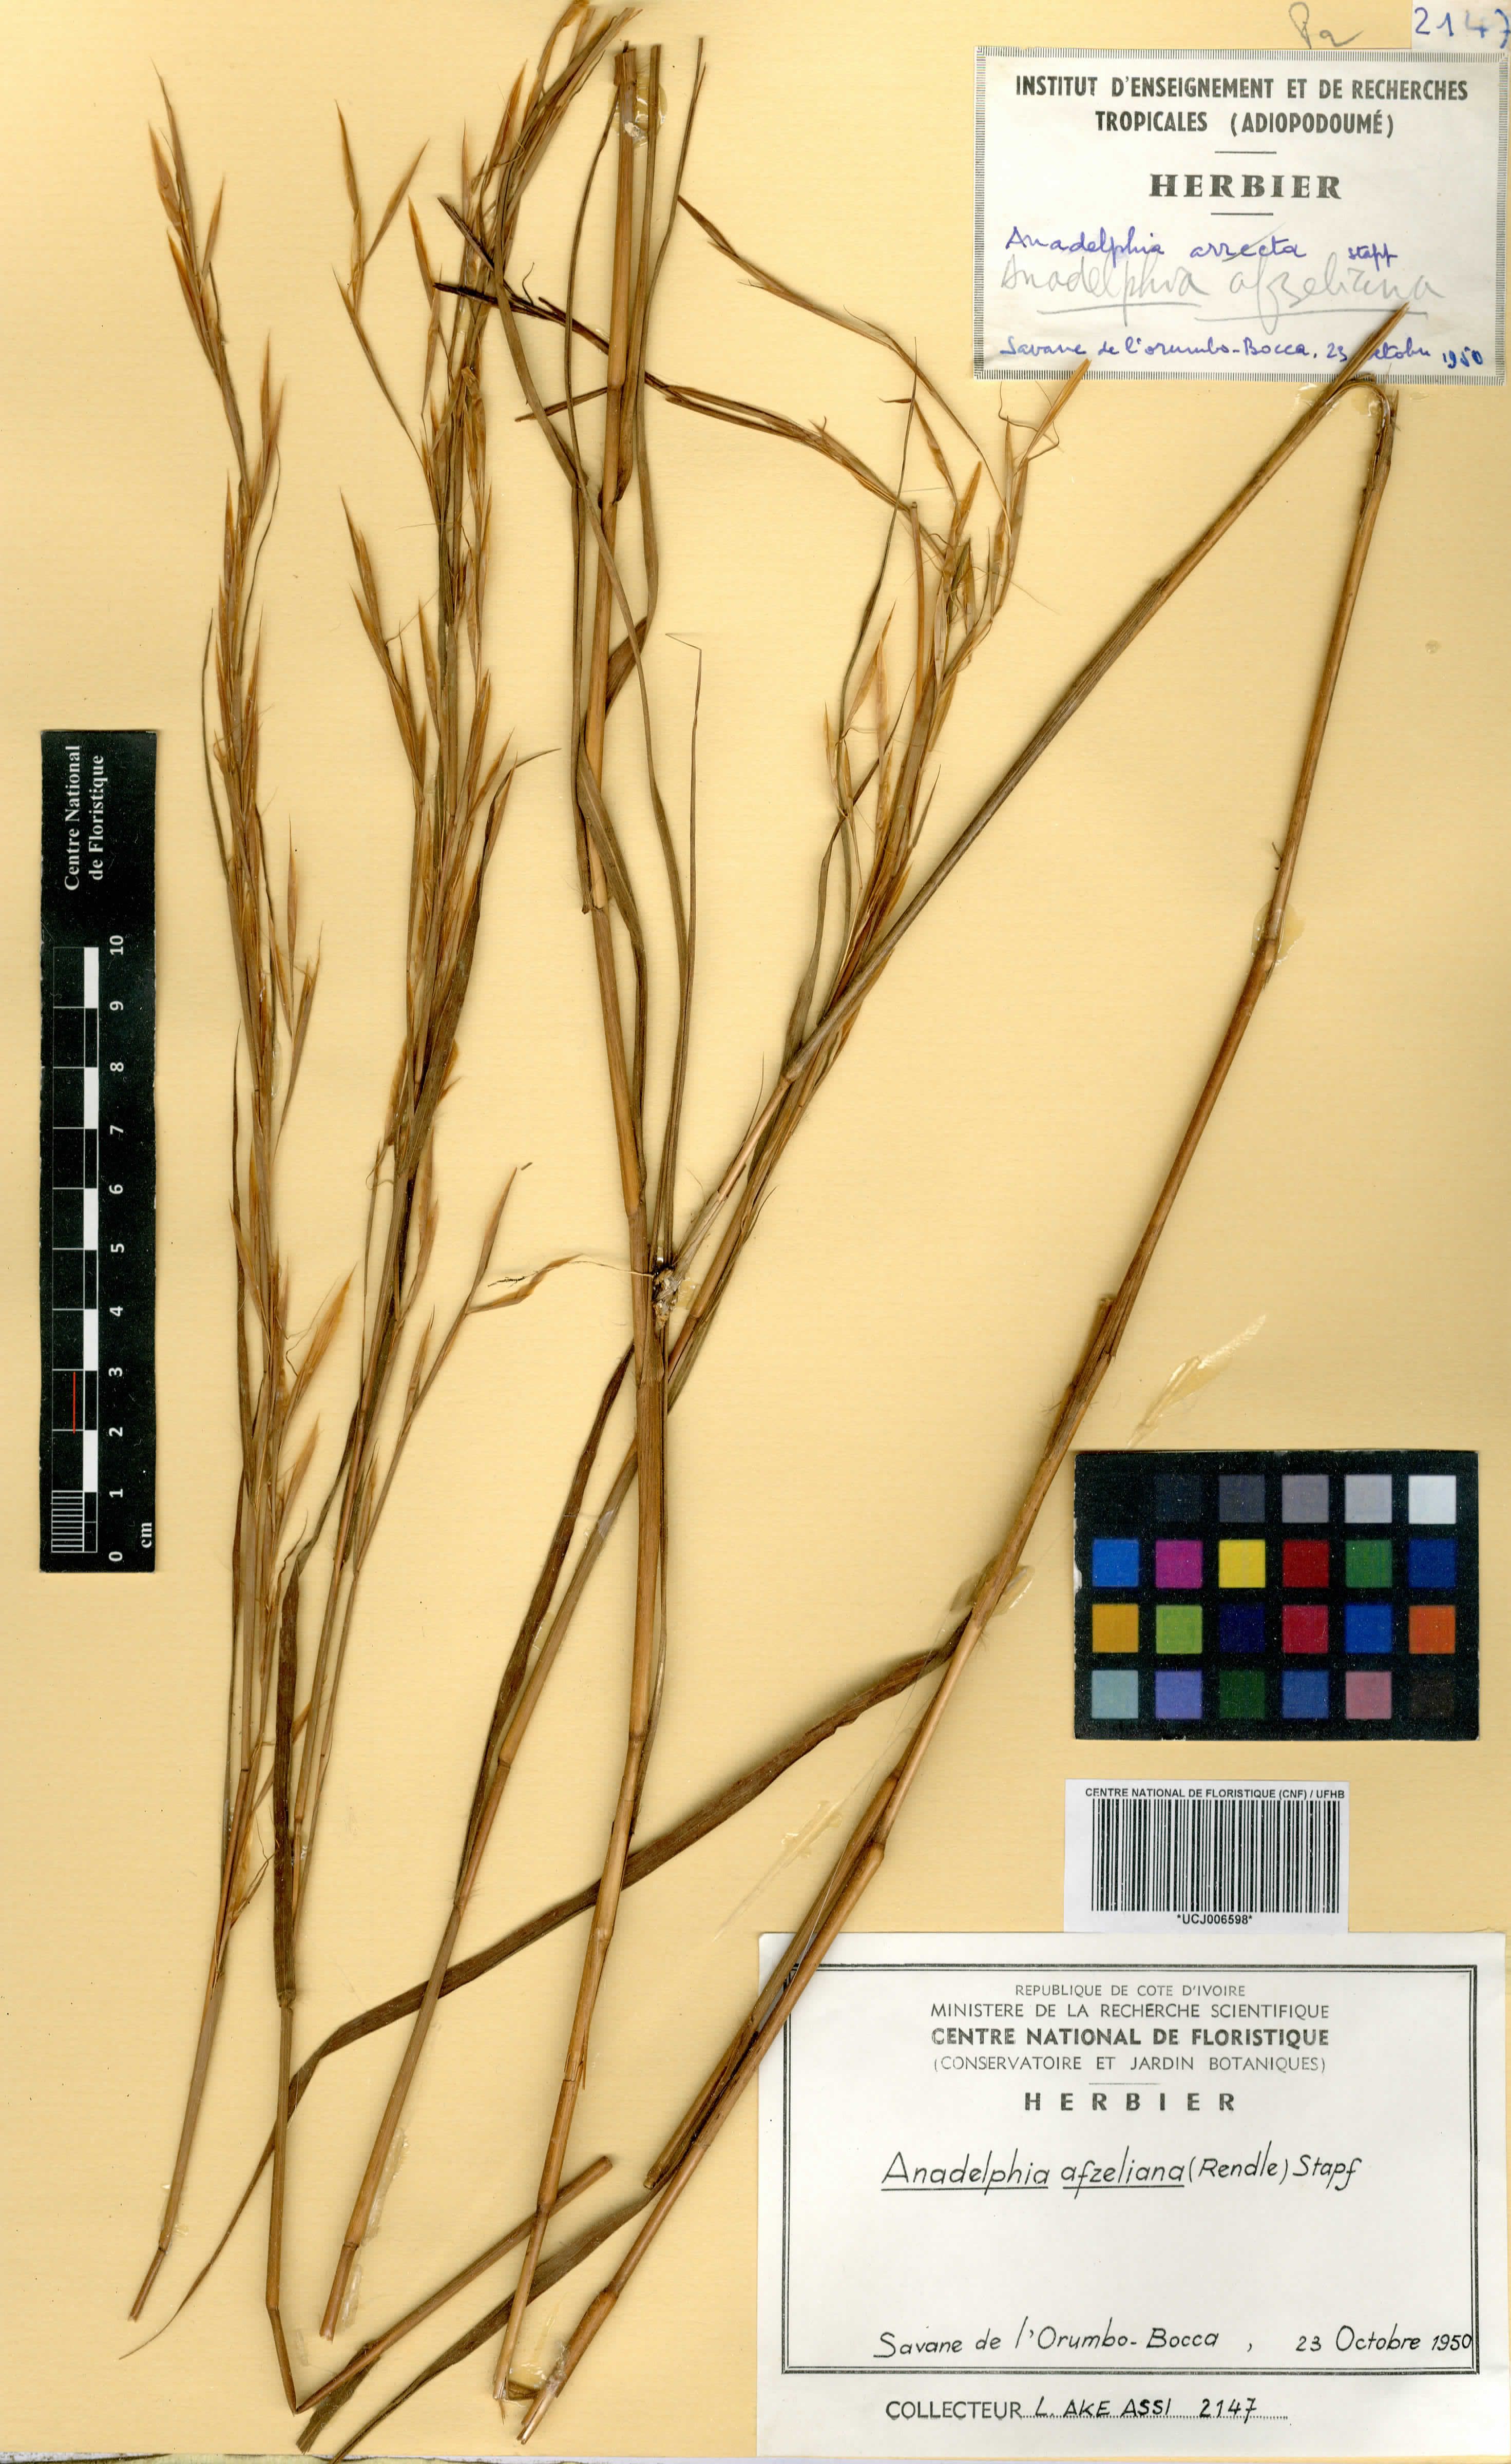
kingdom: Plantae
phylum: Tracheophyta
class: Liliopsida
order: Poales
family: Poaceae
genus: Anadelphia
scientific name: Anadelphia afzeliana
